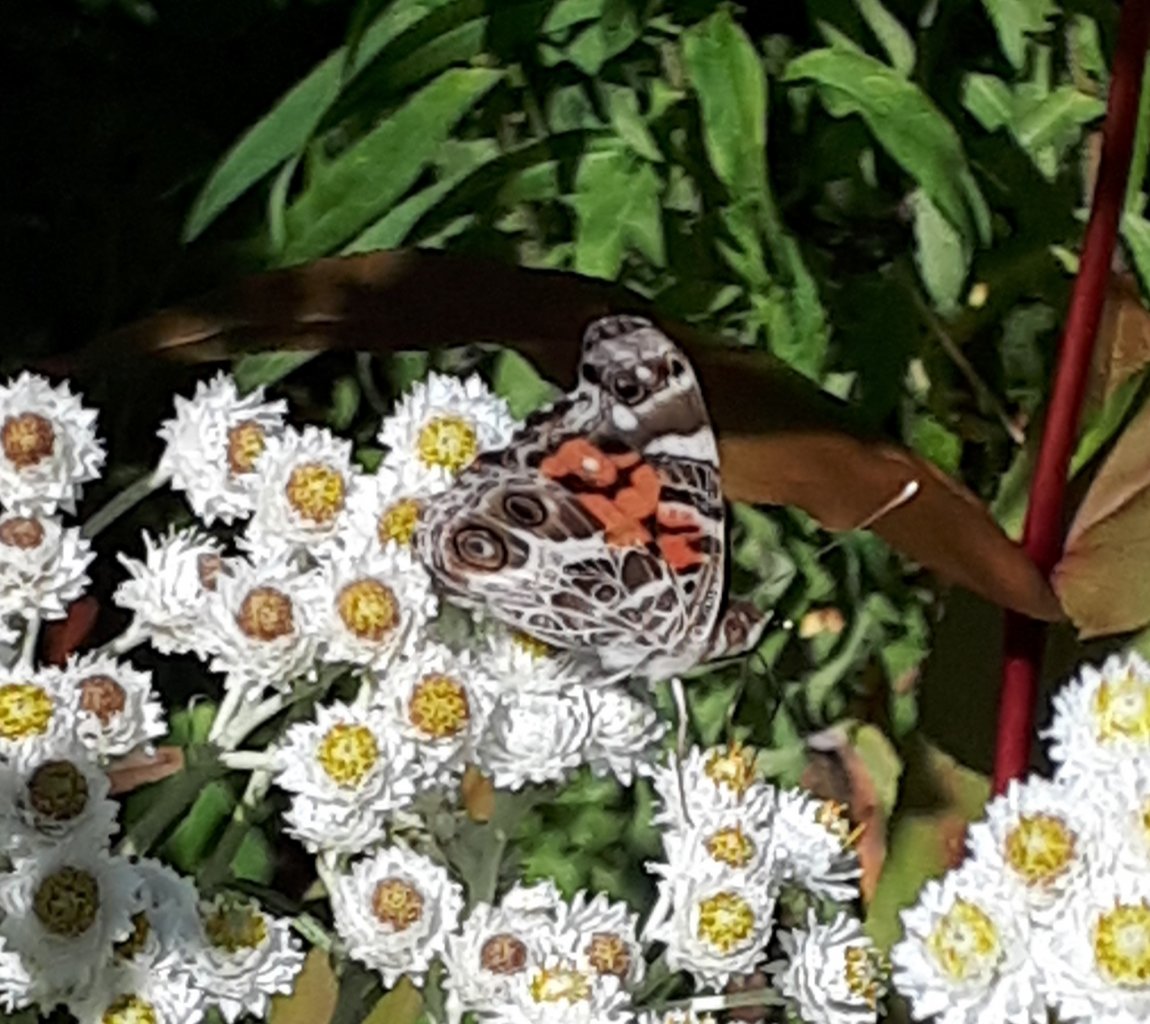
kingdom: Animalia
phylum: Arthropoda
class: Insecta
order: Lepidoptera
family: Nymphalidae
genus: Vanessa
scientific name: Vanessa virginiensis
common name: American Lady
